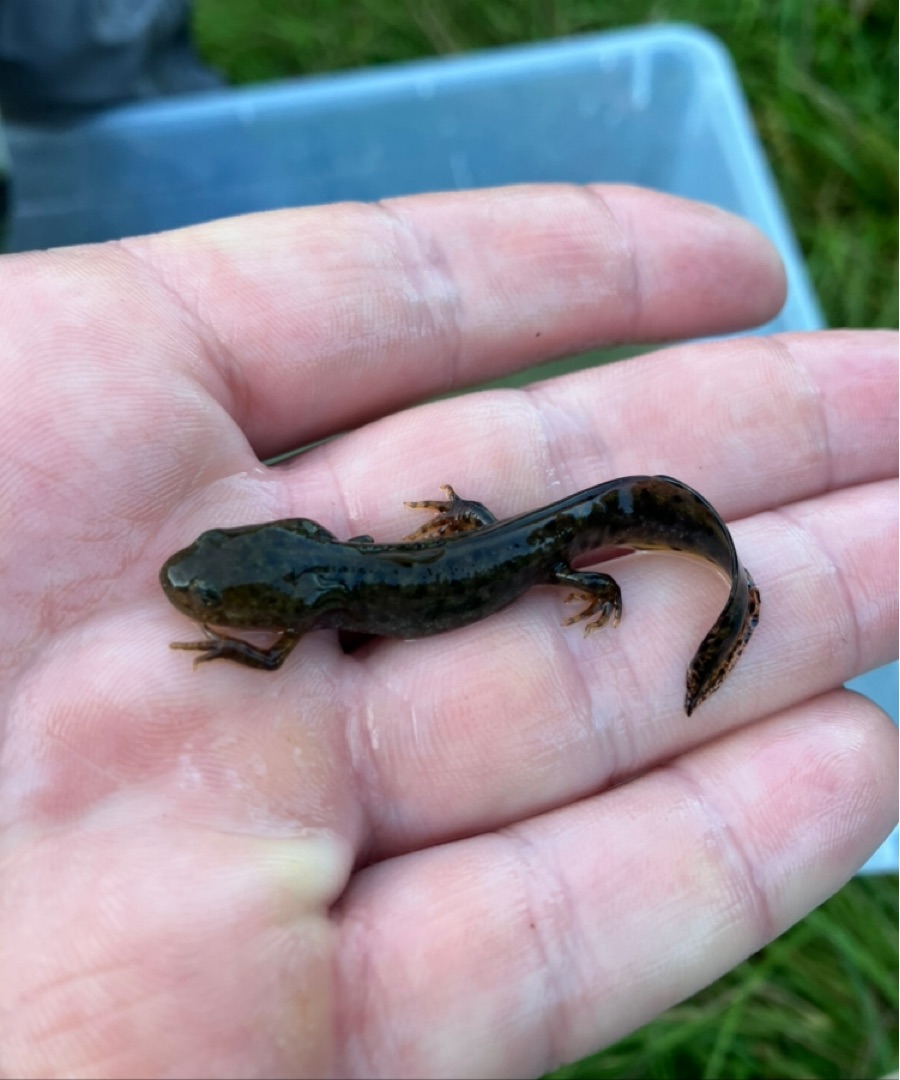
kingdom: Animalia
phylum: Chordata
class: Amphibia
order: Caudata
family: Salamandridae
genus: Triturus
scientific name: Triturus cristatus
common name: Stor vandsalamander
